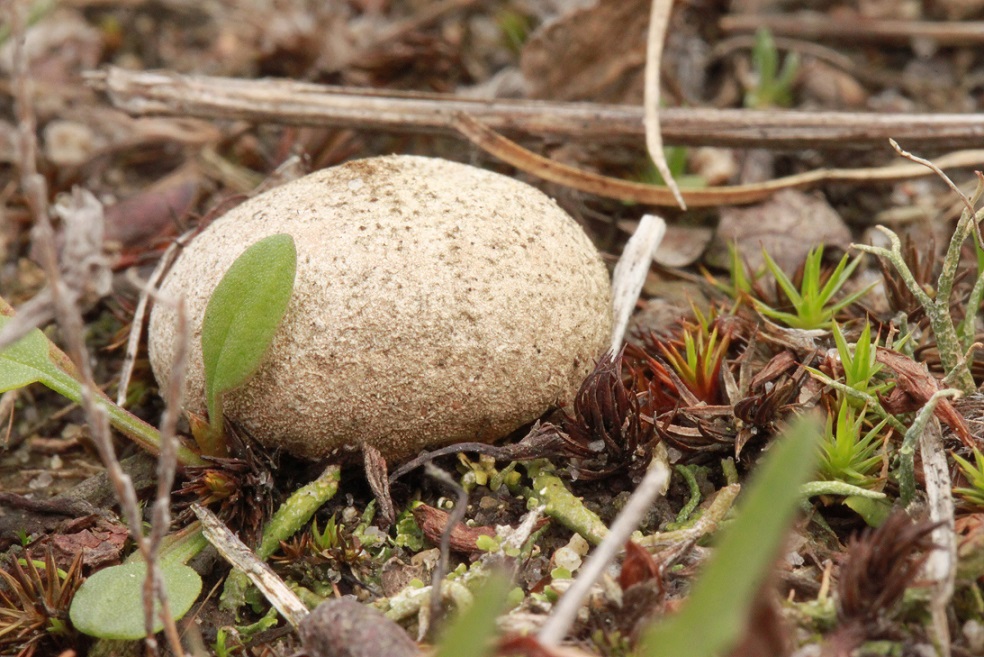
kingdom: Fungi
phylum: Basidiomycota
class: Agaricomycetes
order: Agaricales
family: Lycoperdaceae
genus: Bovista
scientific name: Bovista aestivalis
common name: klit-bovist
